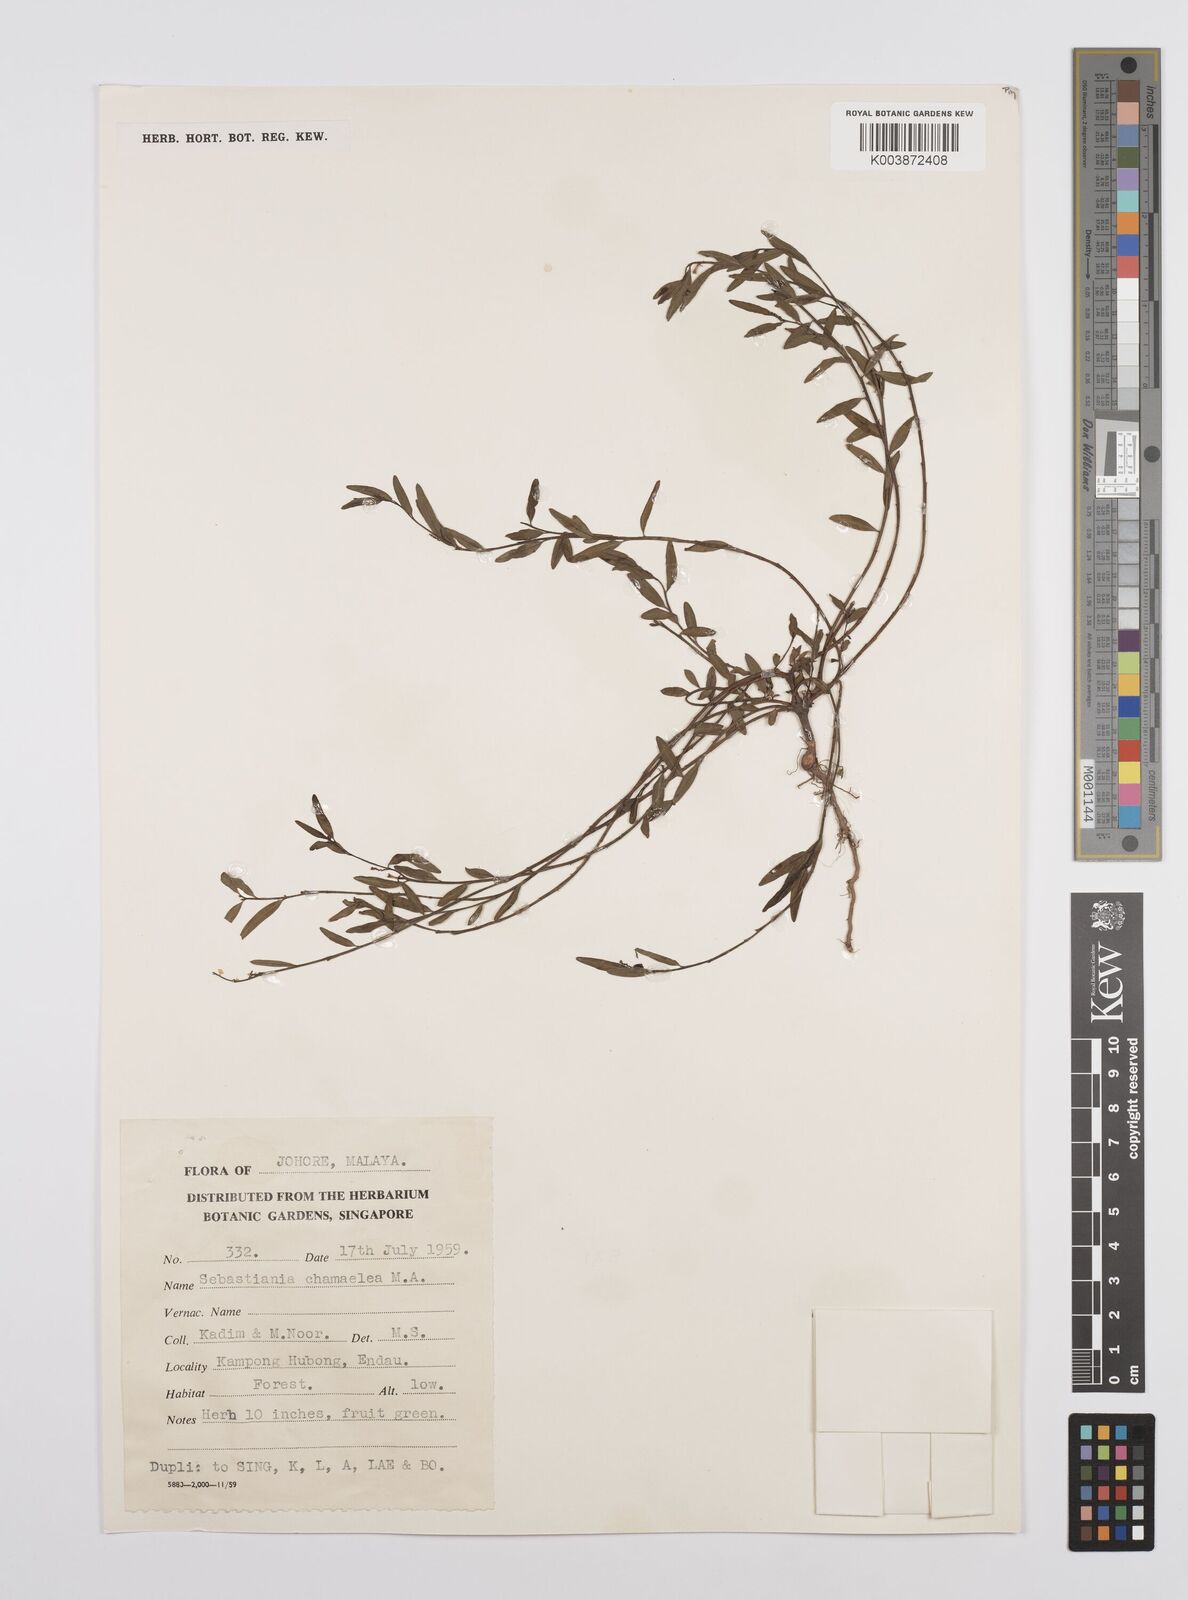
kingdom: Plantae
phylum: Tracheophyta
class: Magnoliopsida
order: Malpighiales
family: Euphorbiaceae
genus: Microstachys
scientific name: Microstachys chamaelea
